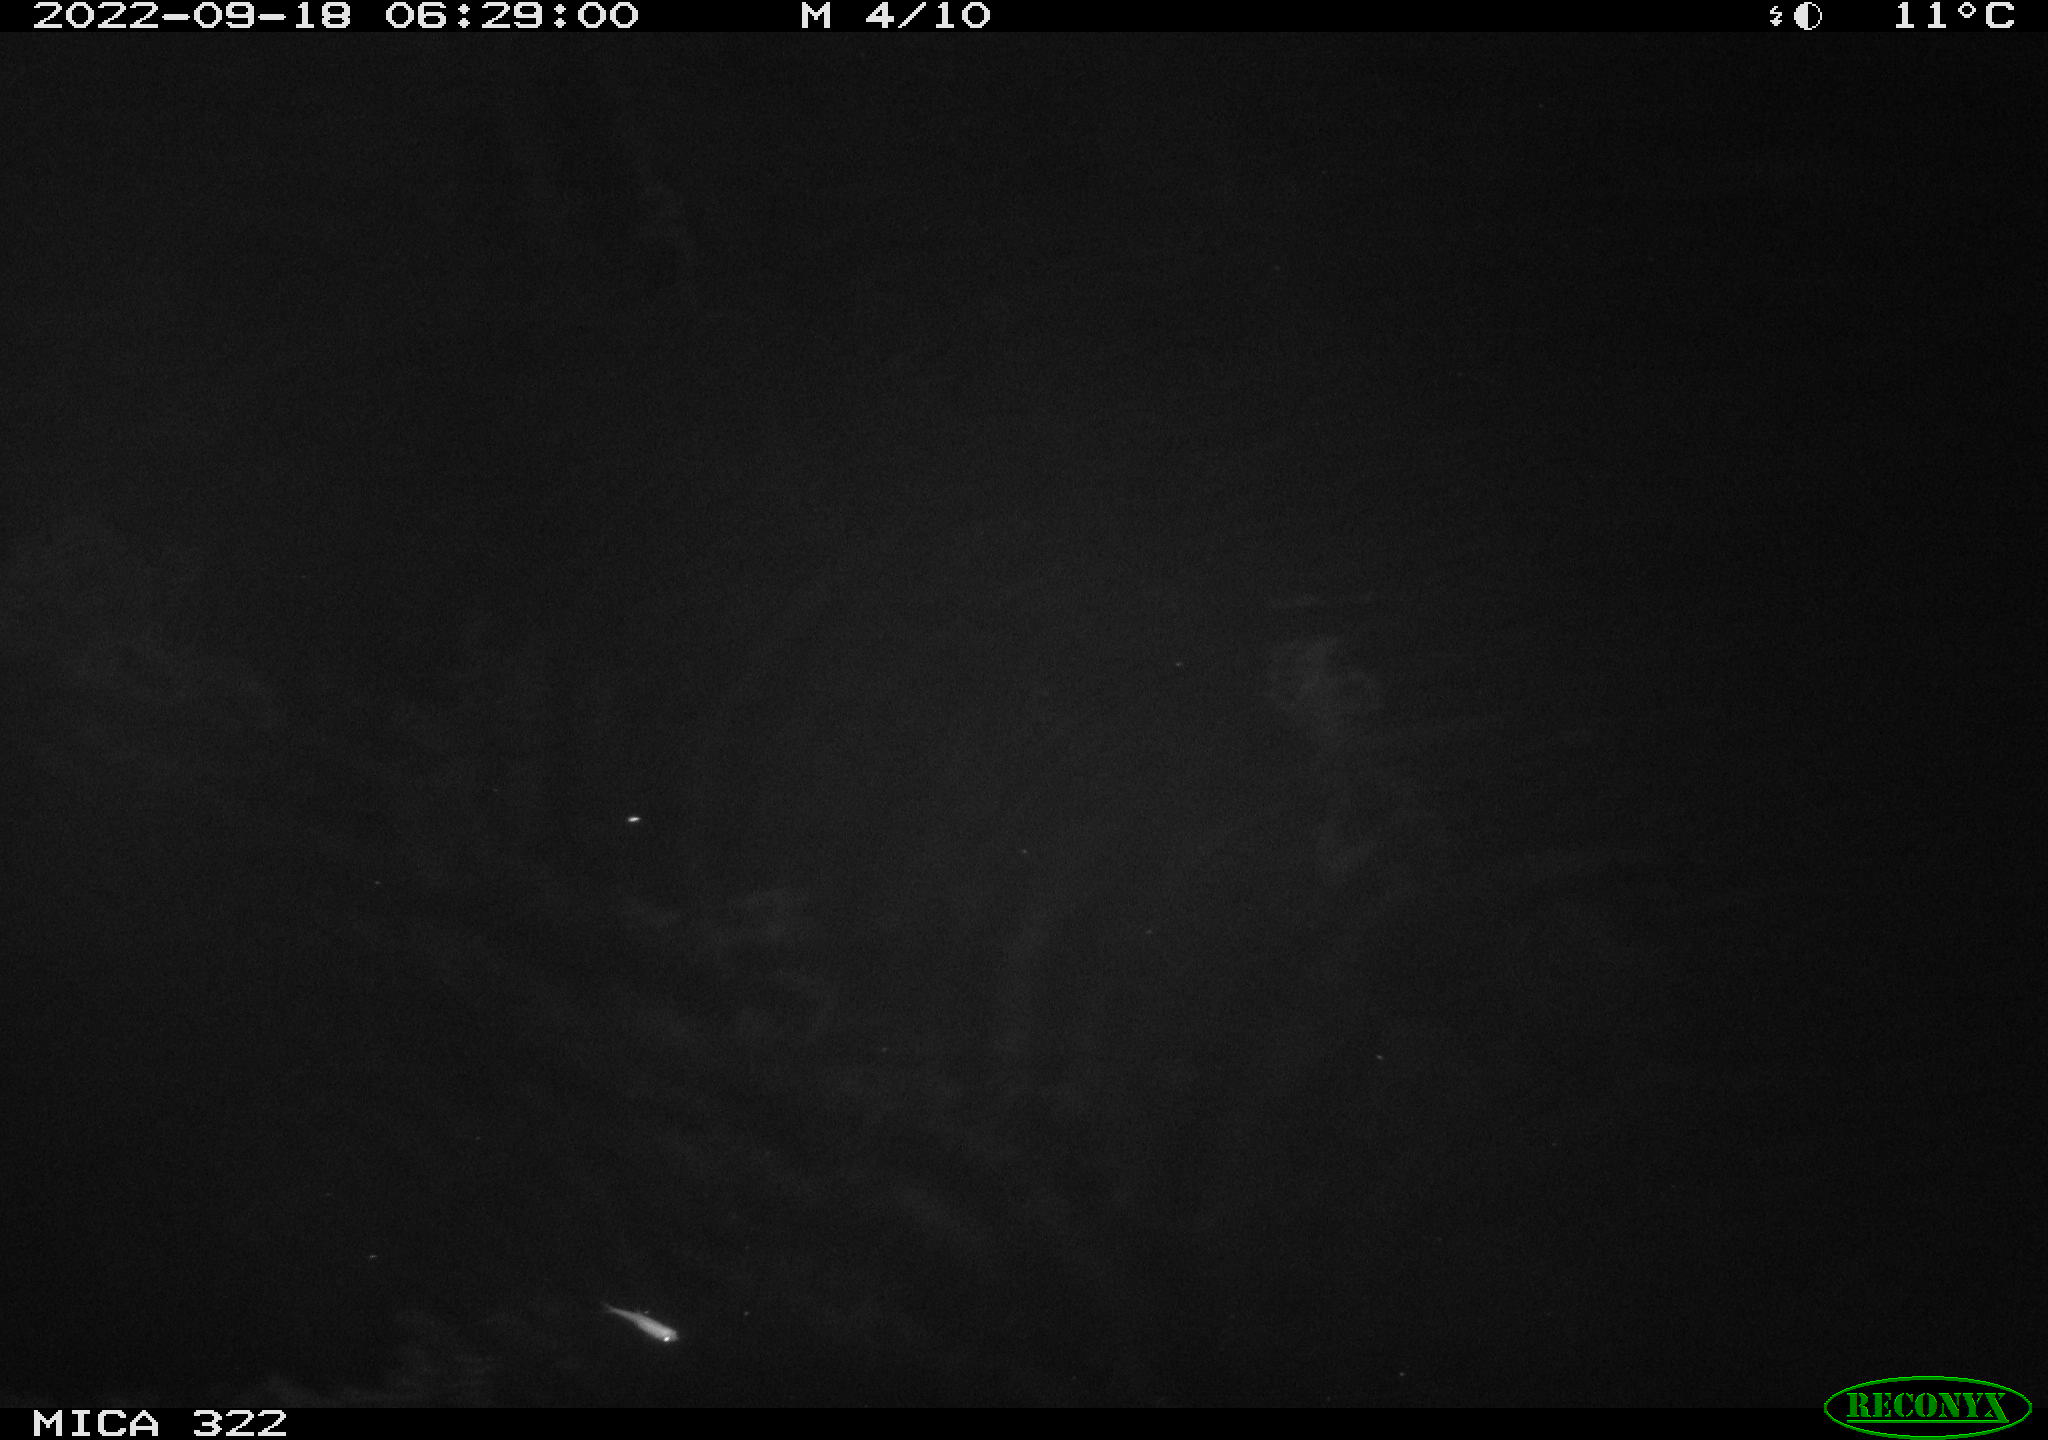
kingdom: Animalia
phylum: Chordata
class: Mammalia
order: Rodentia
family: Muridae
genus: Rattus
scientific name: Rattus norvegicus
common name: Brown rat
